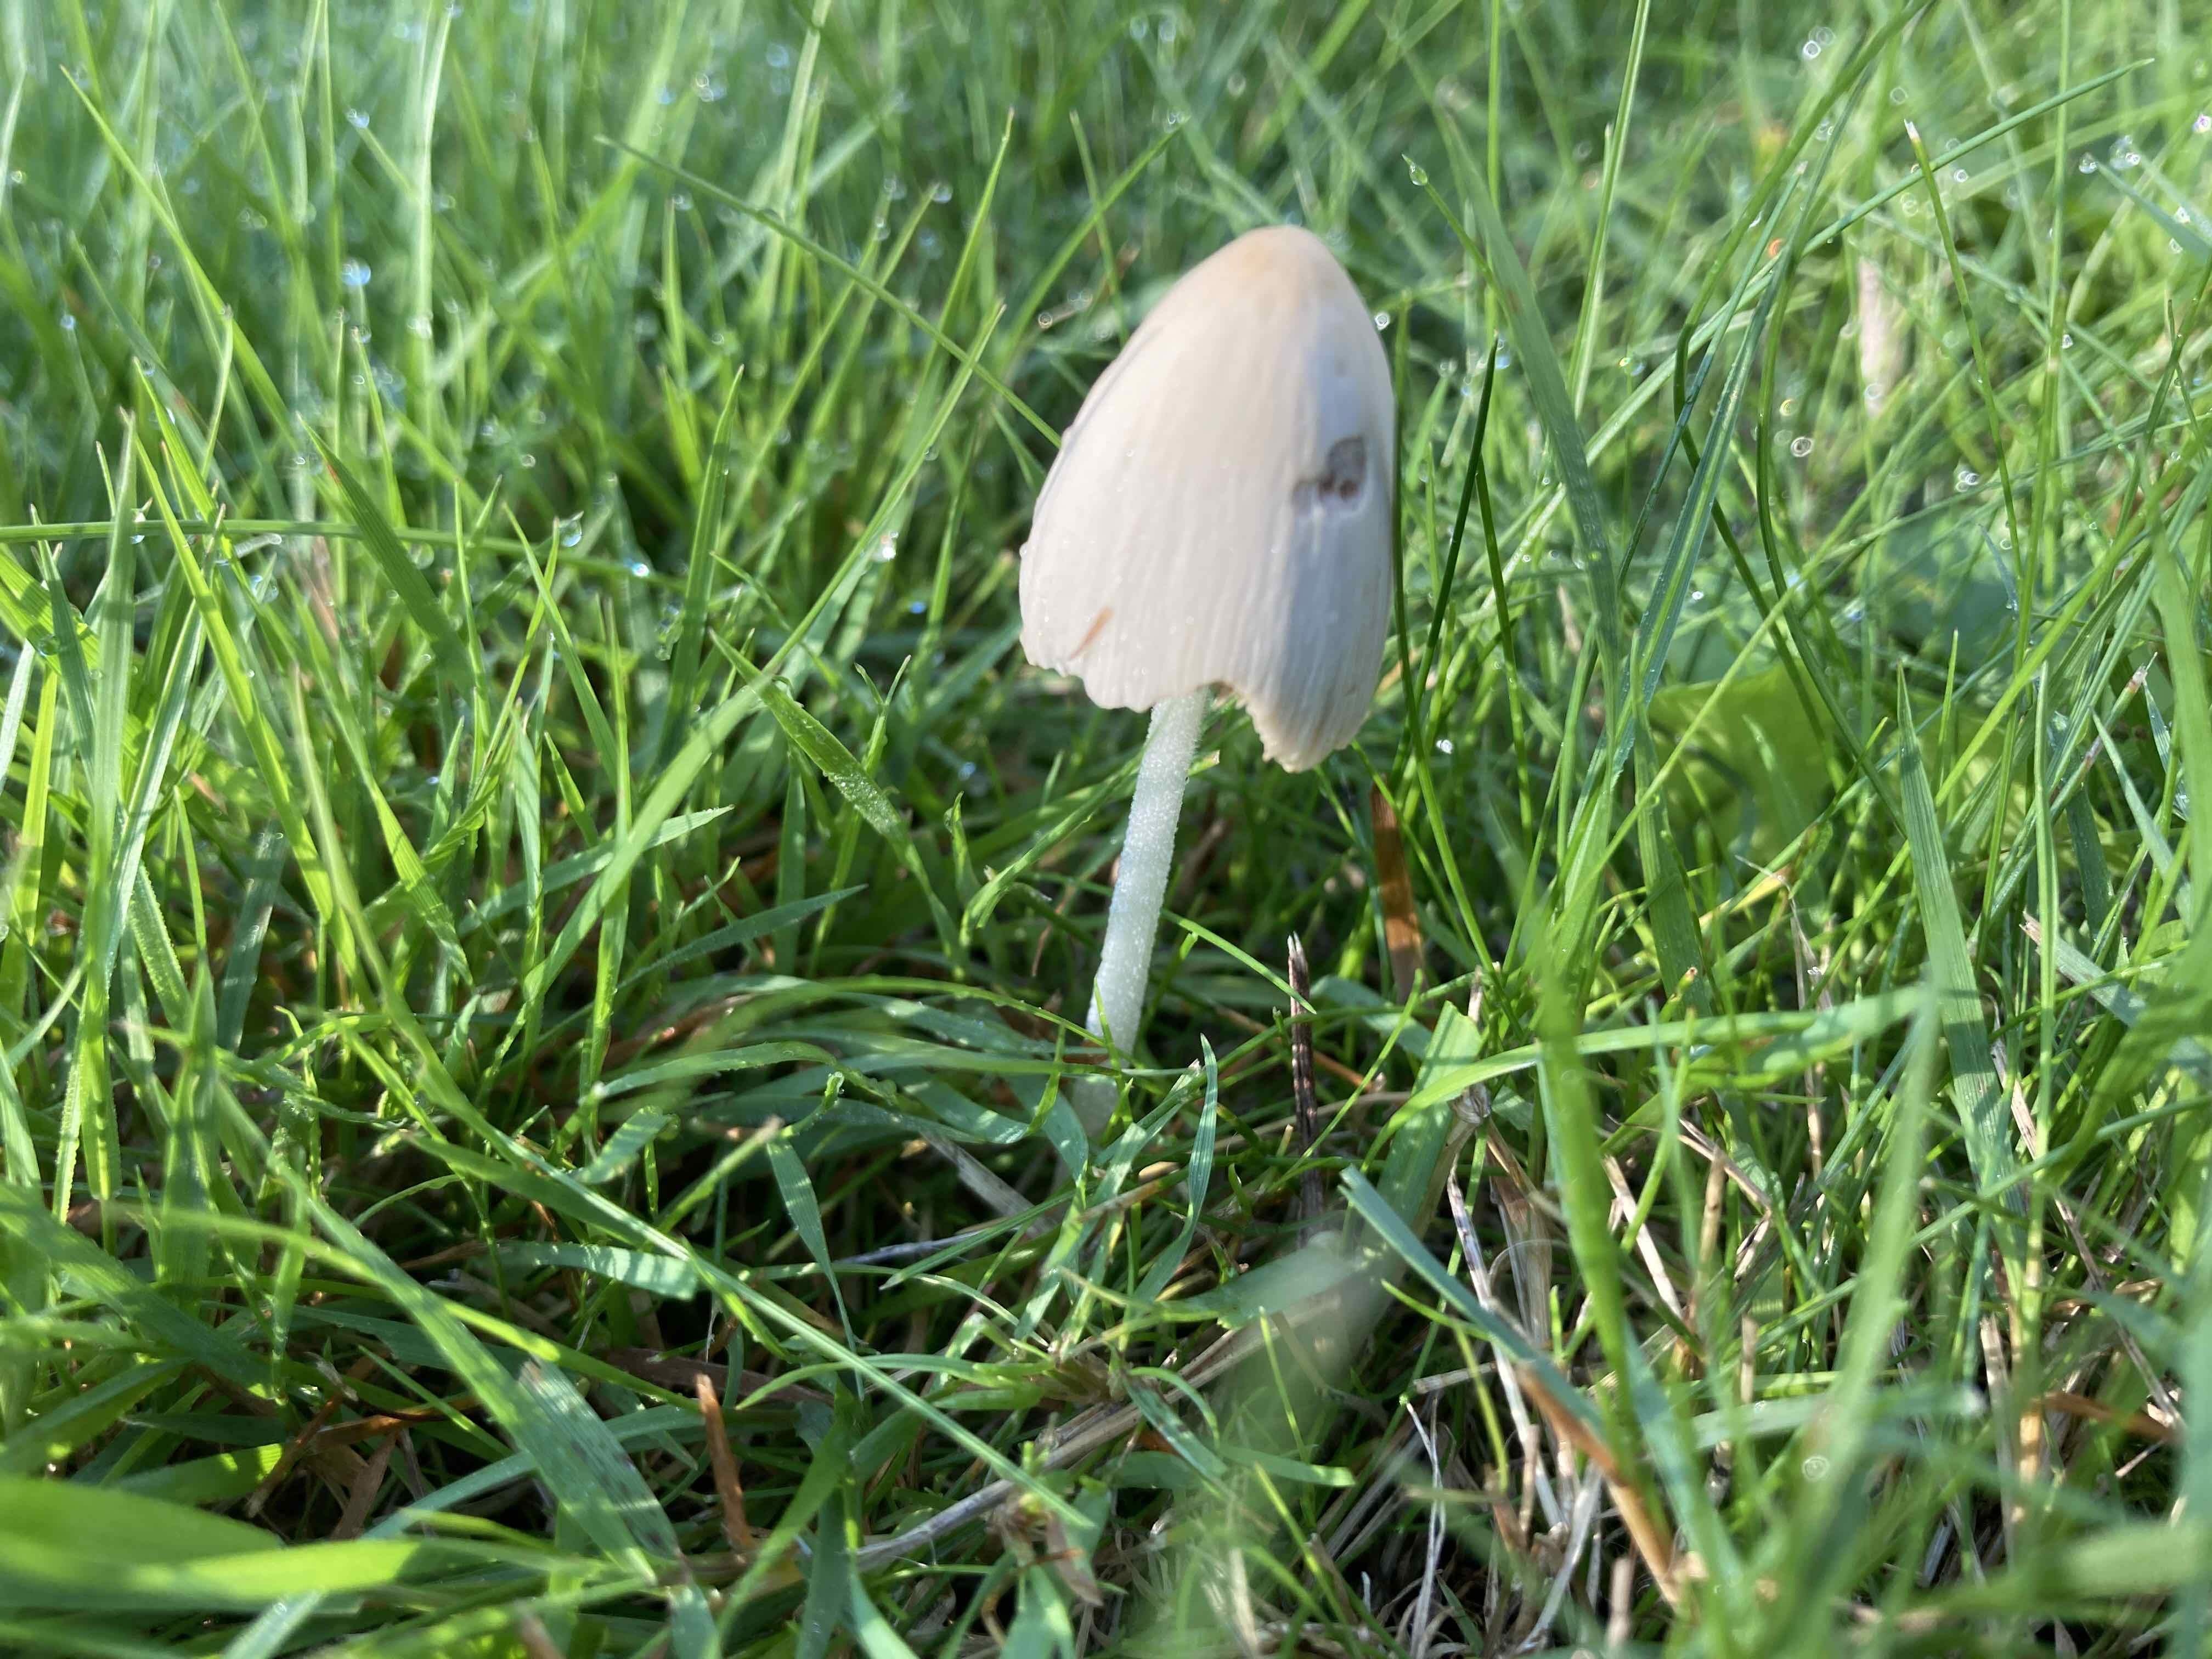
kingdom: Fungi
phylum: Basidiomycota
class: Agaricomycetes
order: Agaricales
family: Bolbitiaceae
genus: Conocybe
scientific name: Conocybe apala
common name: mælkehvid keglehat
